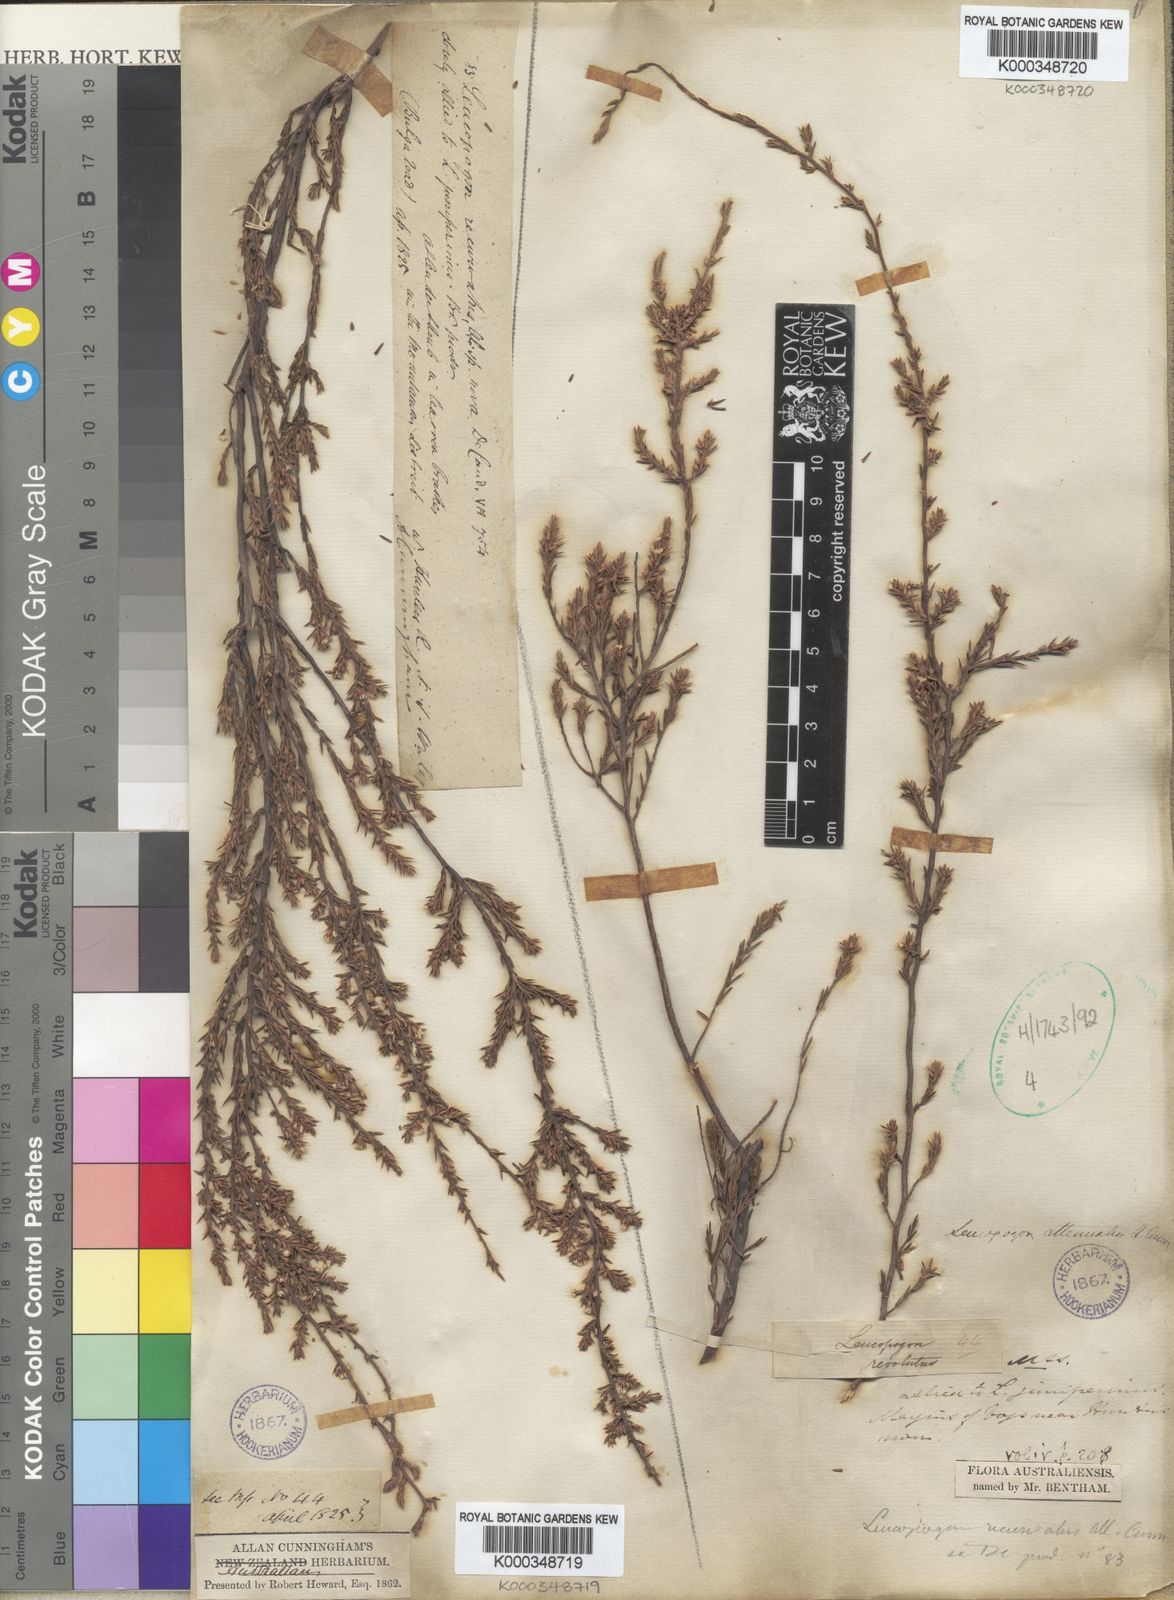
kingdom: Plantae
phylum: Tracheophyta
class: Magnoliopsida
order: Ericales
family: Ericaceae
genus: Styphelia
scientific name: Styphelia attenuata
